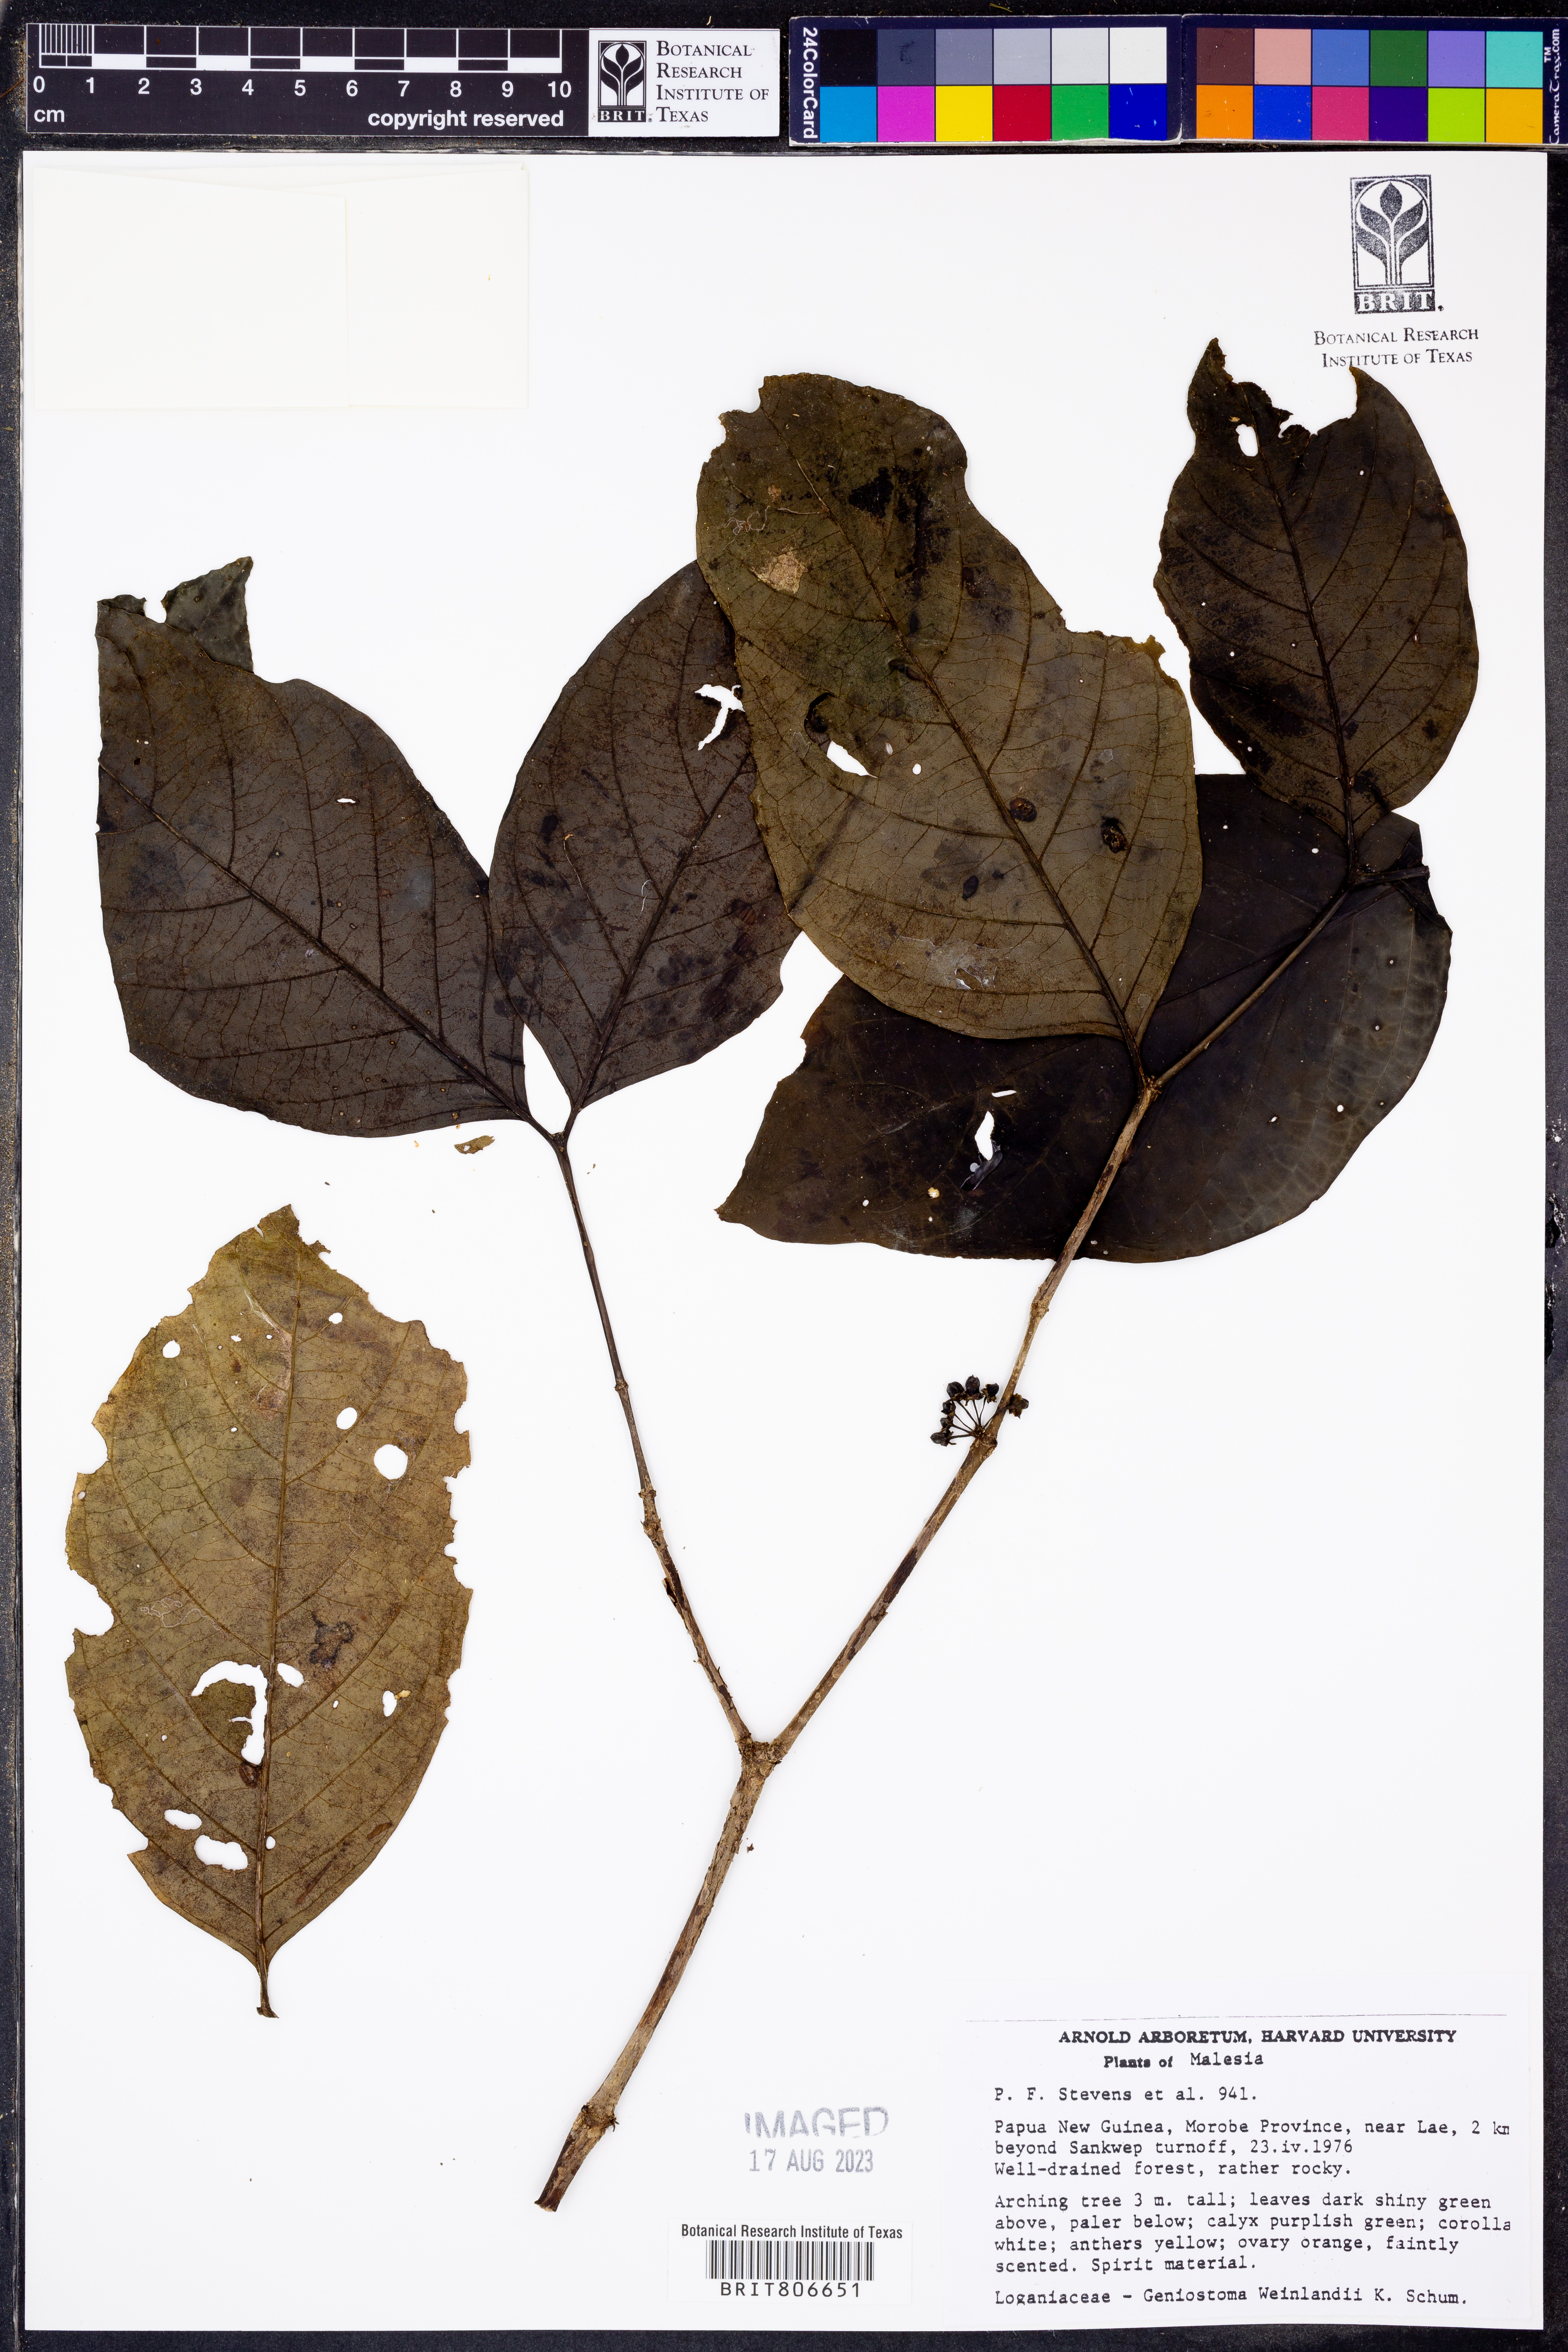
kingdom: Plantae
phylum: Tracheophyta
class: Magnoliopsida
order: Gentianales
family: Loganiaceae
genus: Geniostoma
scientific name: Geniostoma weinlandii
